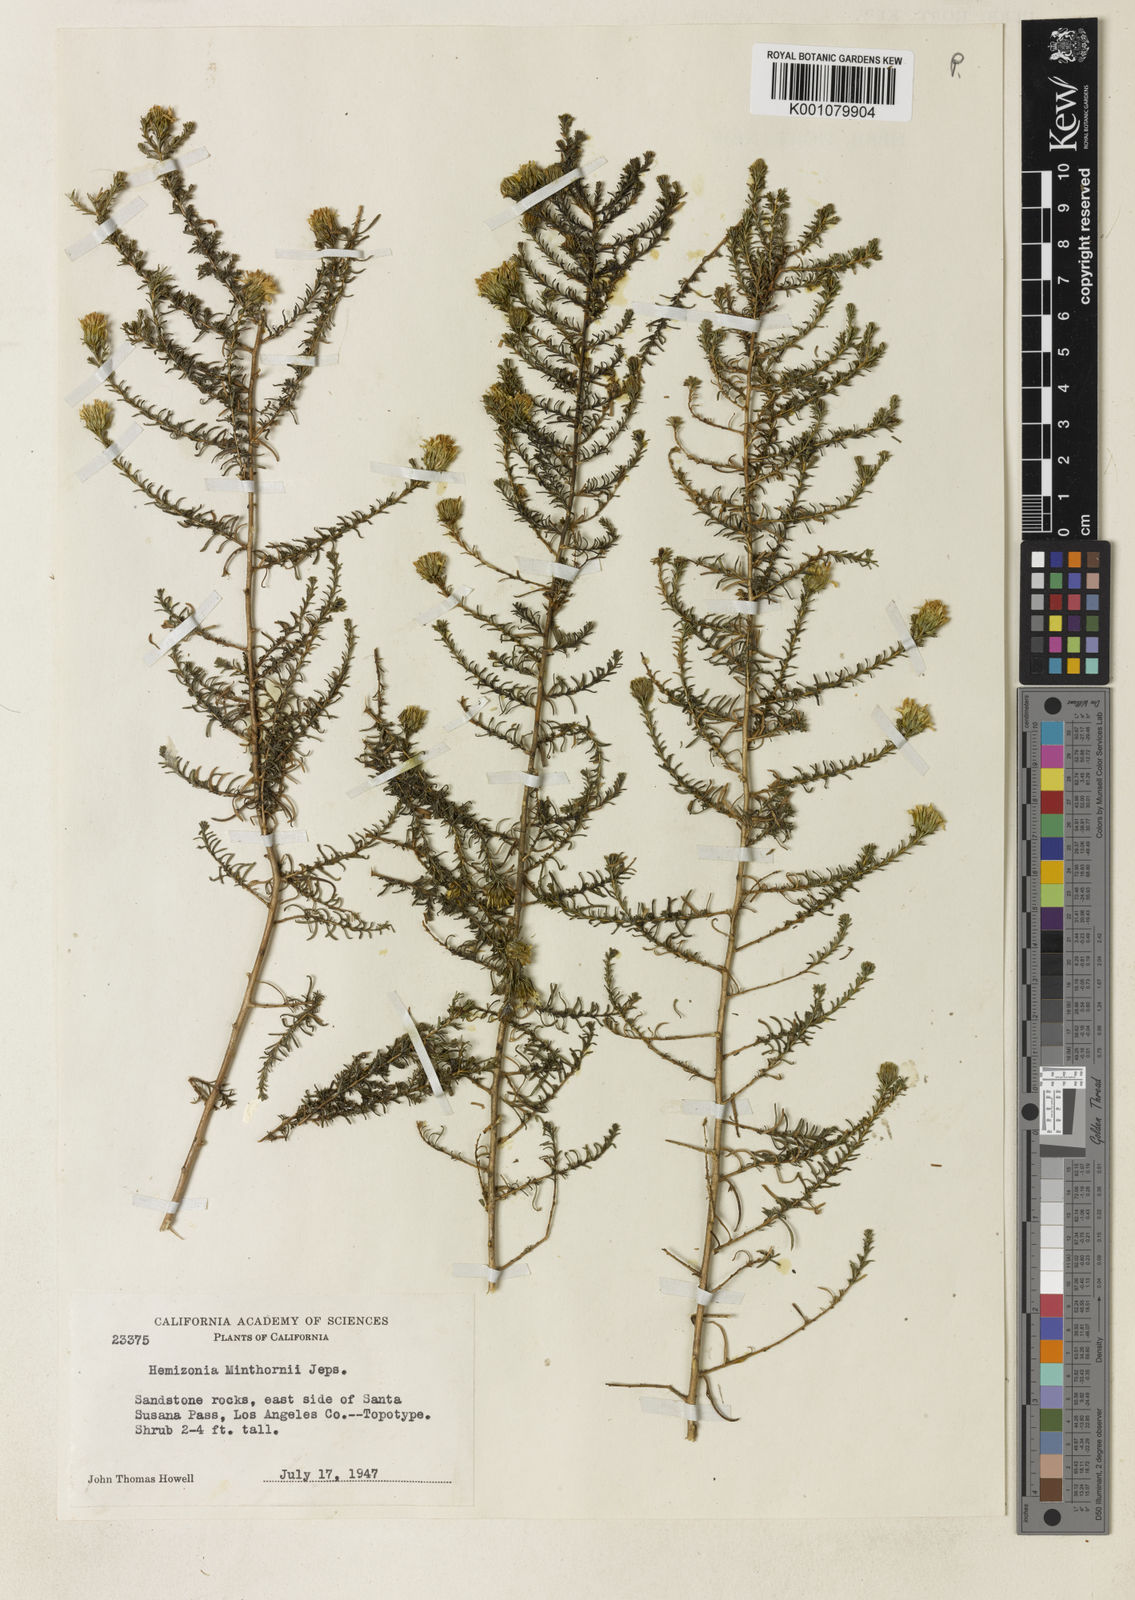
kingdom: Plantae
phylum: Tracheophyta
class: Magnoliopsida
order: Asterales
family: Asteraceae
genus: Deinandra
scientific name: Deinandra minthornii
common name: Santa susana tarplant
